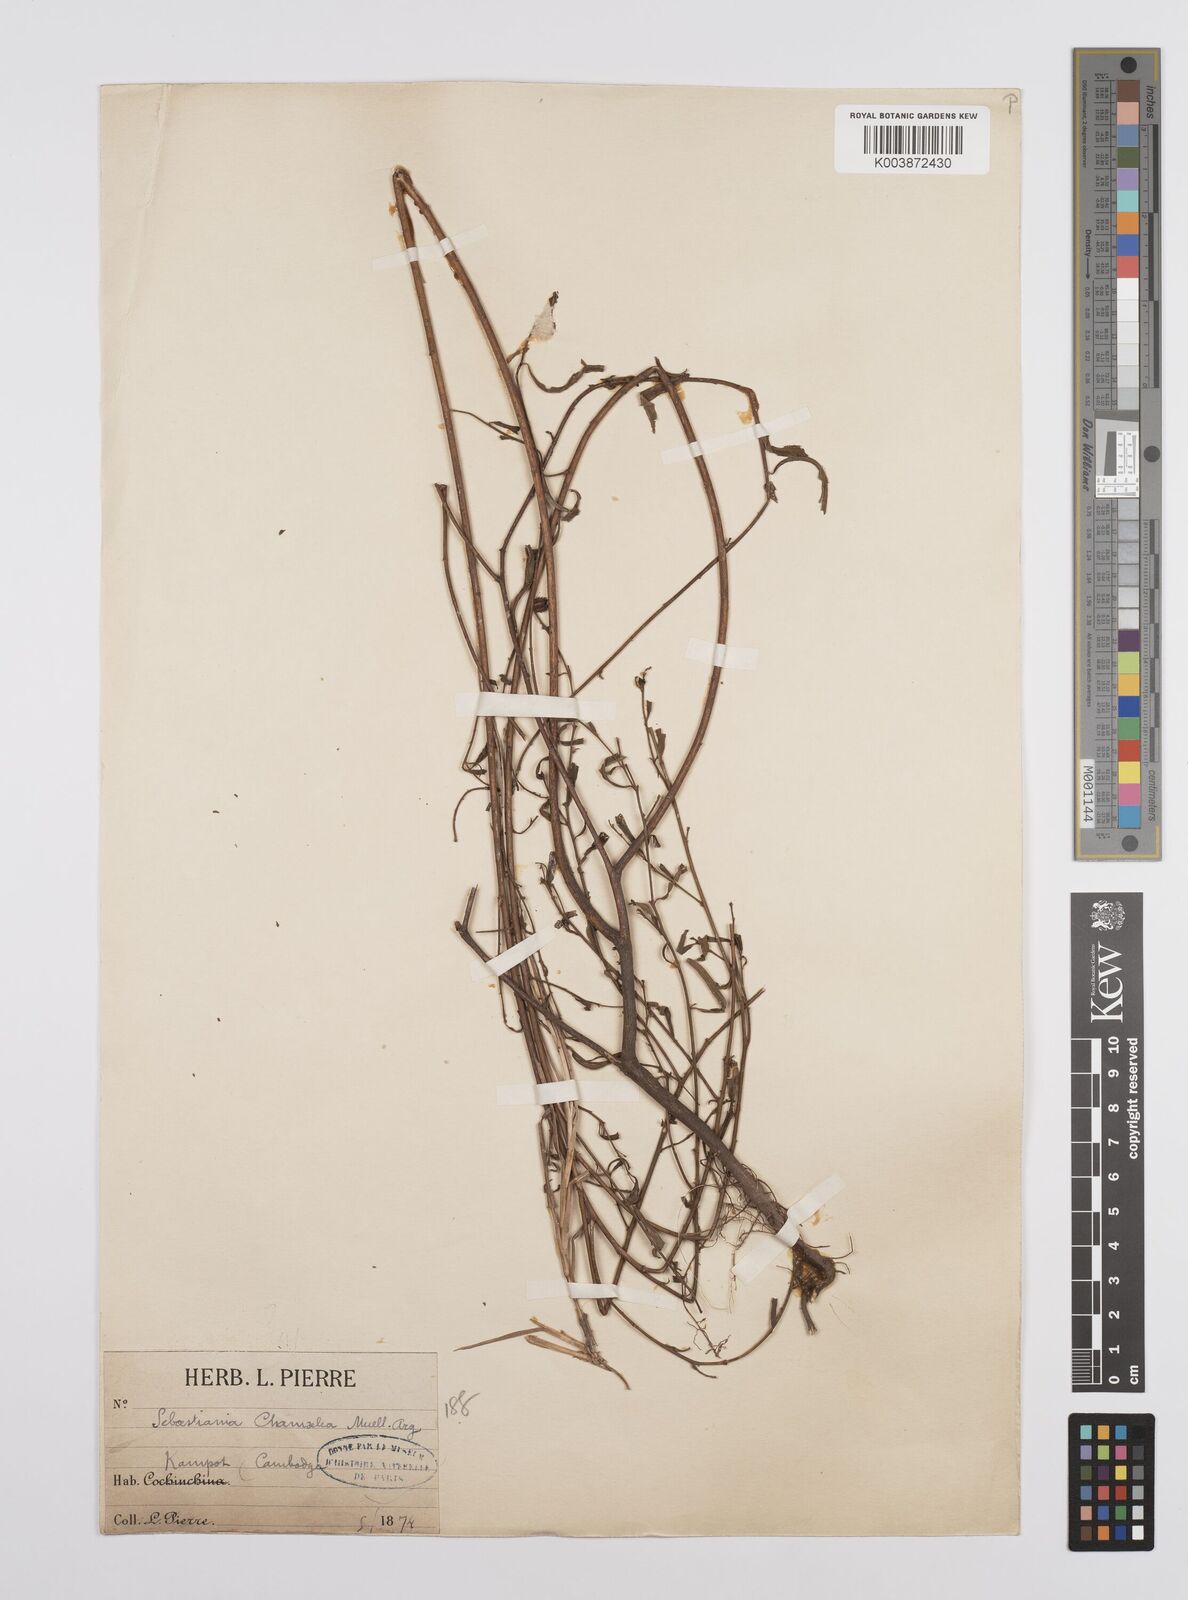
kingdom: Plantae
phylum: Tracheophyta
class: Magnoliopsida
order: Malpighiales
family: Euphorbiaceae
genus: Microstachys
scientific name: Microstachys chamaelea
